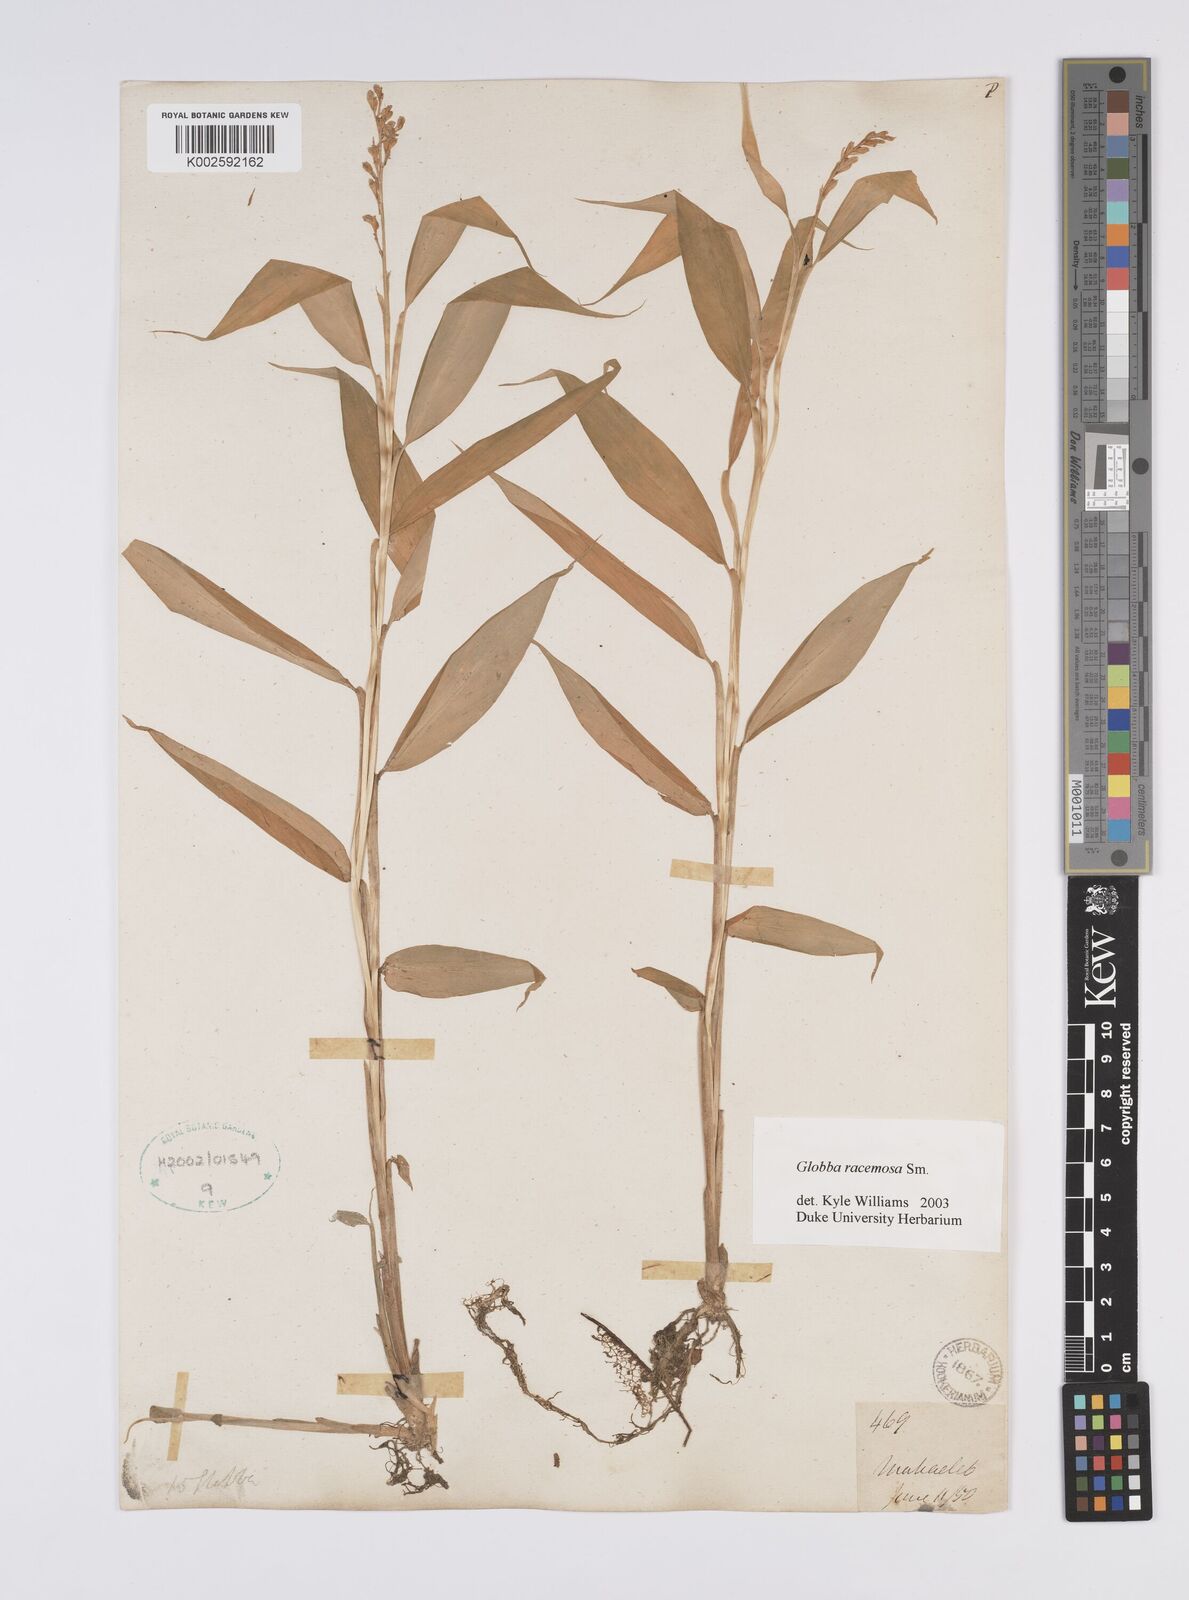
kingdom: Plantae
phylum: Tracheophyta
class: Liliopsida
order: Zingiberales
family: Zingiberaceae
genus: Globba
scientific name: Globba racemosa
